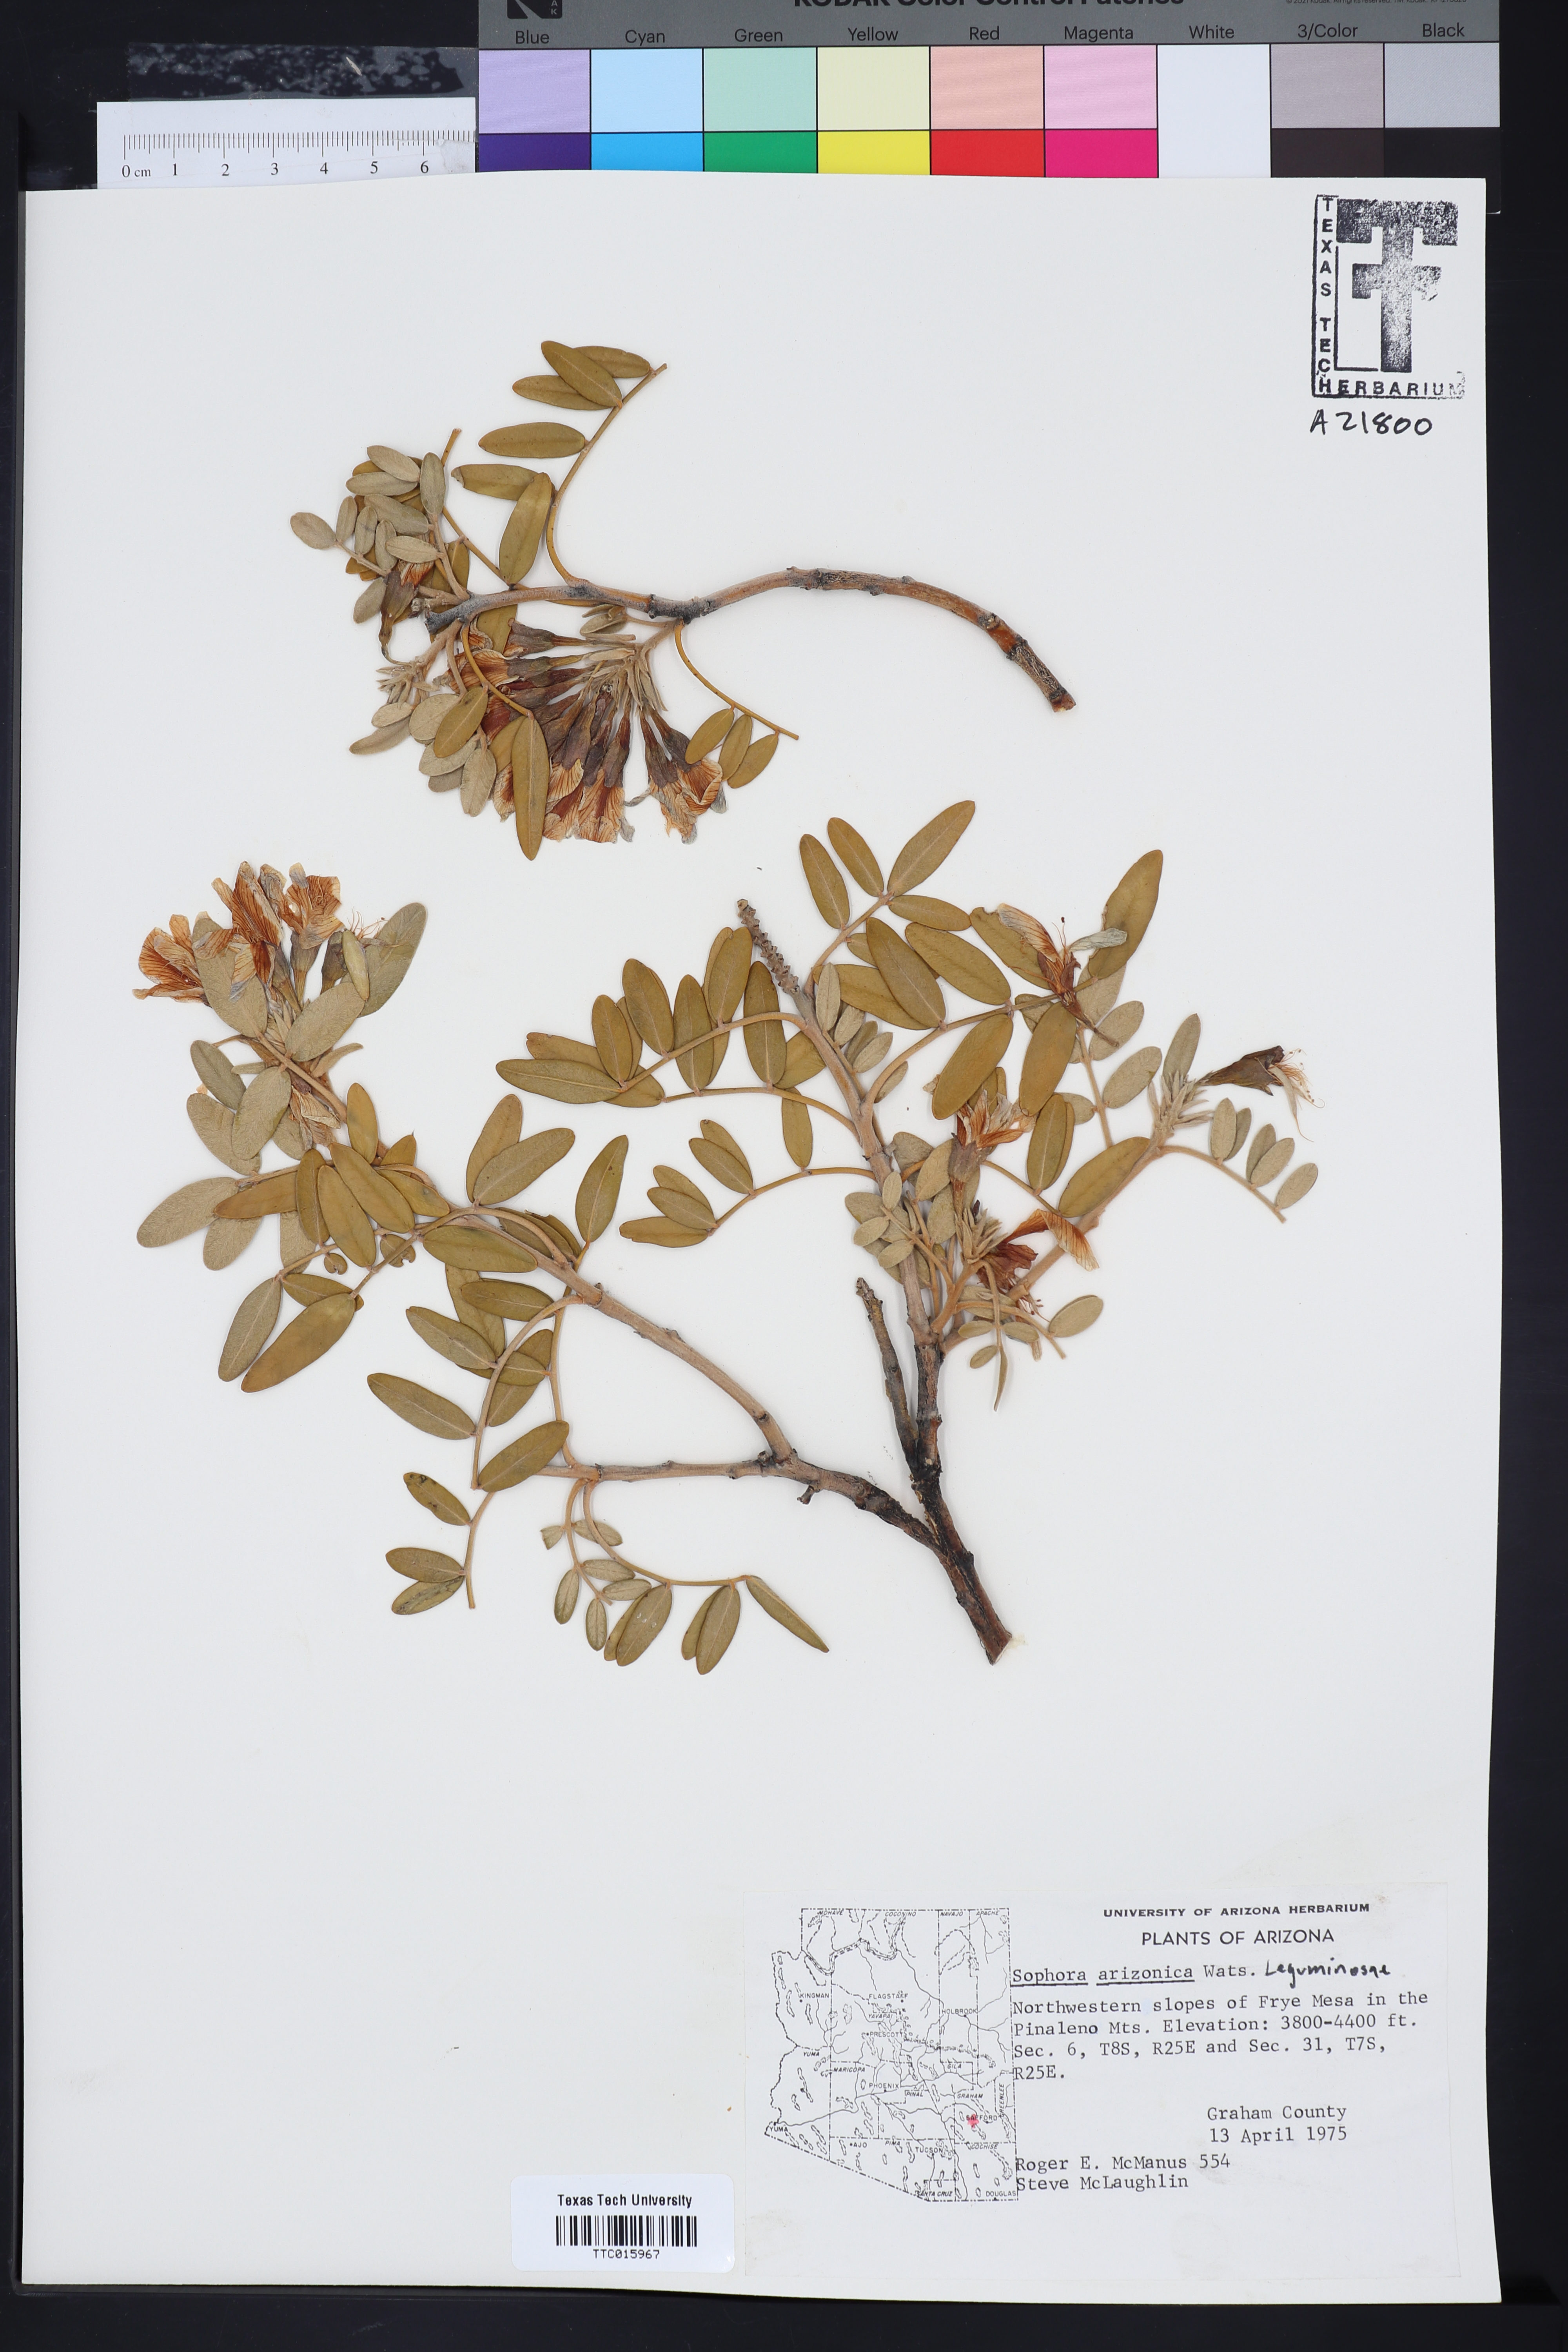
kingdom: Plantae
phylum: Tracheophyta
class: Magnoliopsida
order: Fabales
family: Fabaceae
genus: Dermatophyllum
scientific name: Dermatophyllum arizonicum
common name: Arizona necklace
